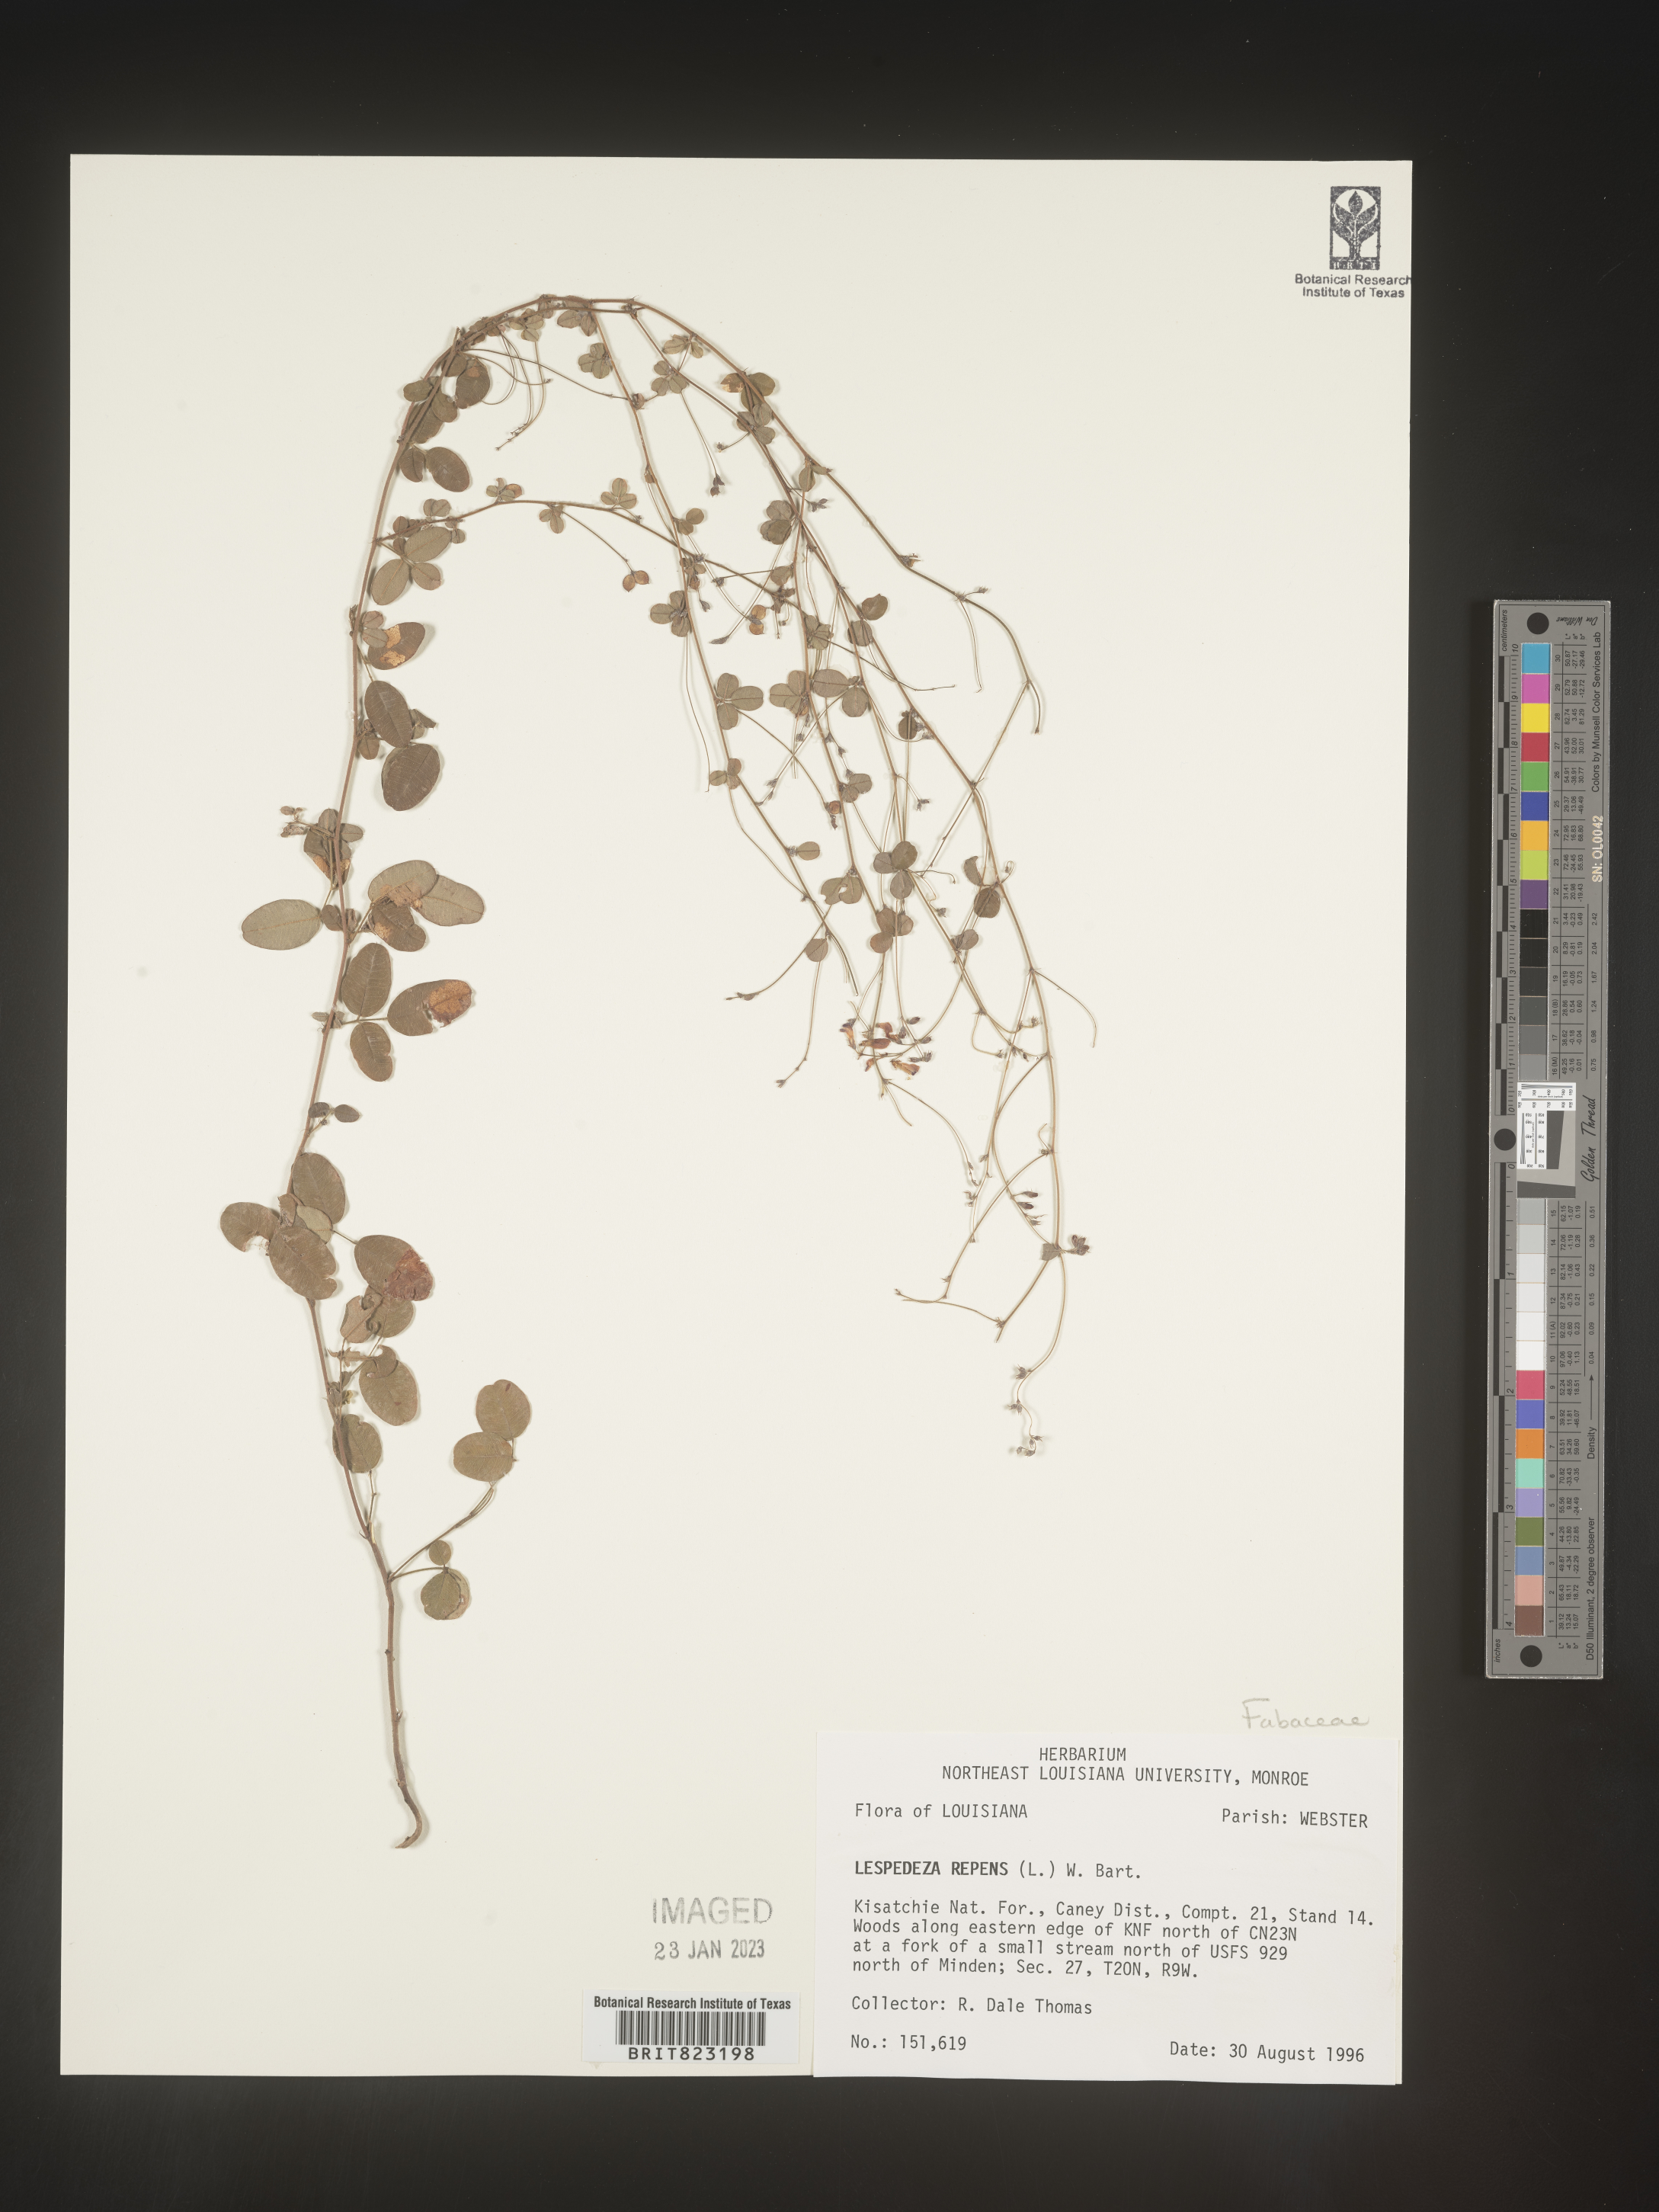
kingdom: Plantae
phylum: Tracheophyta
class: Magnoliopsida
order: Fabales
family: Fabaceae
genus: Lespedeza
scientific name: Lespedeza repens
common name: Creeping bush-clover
